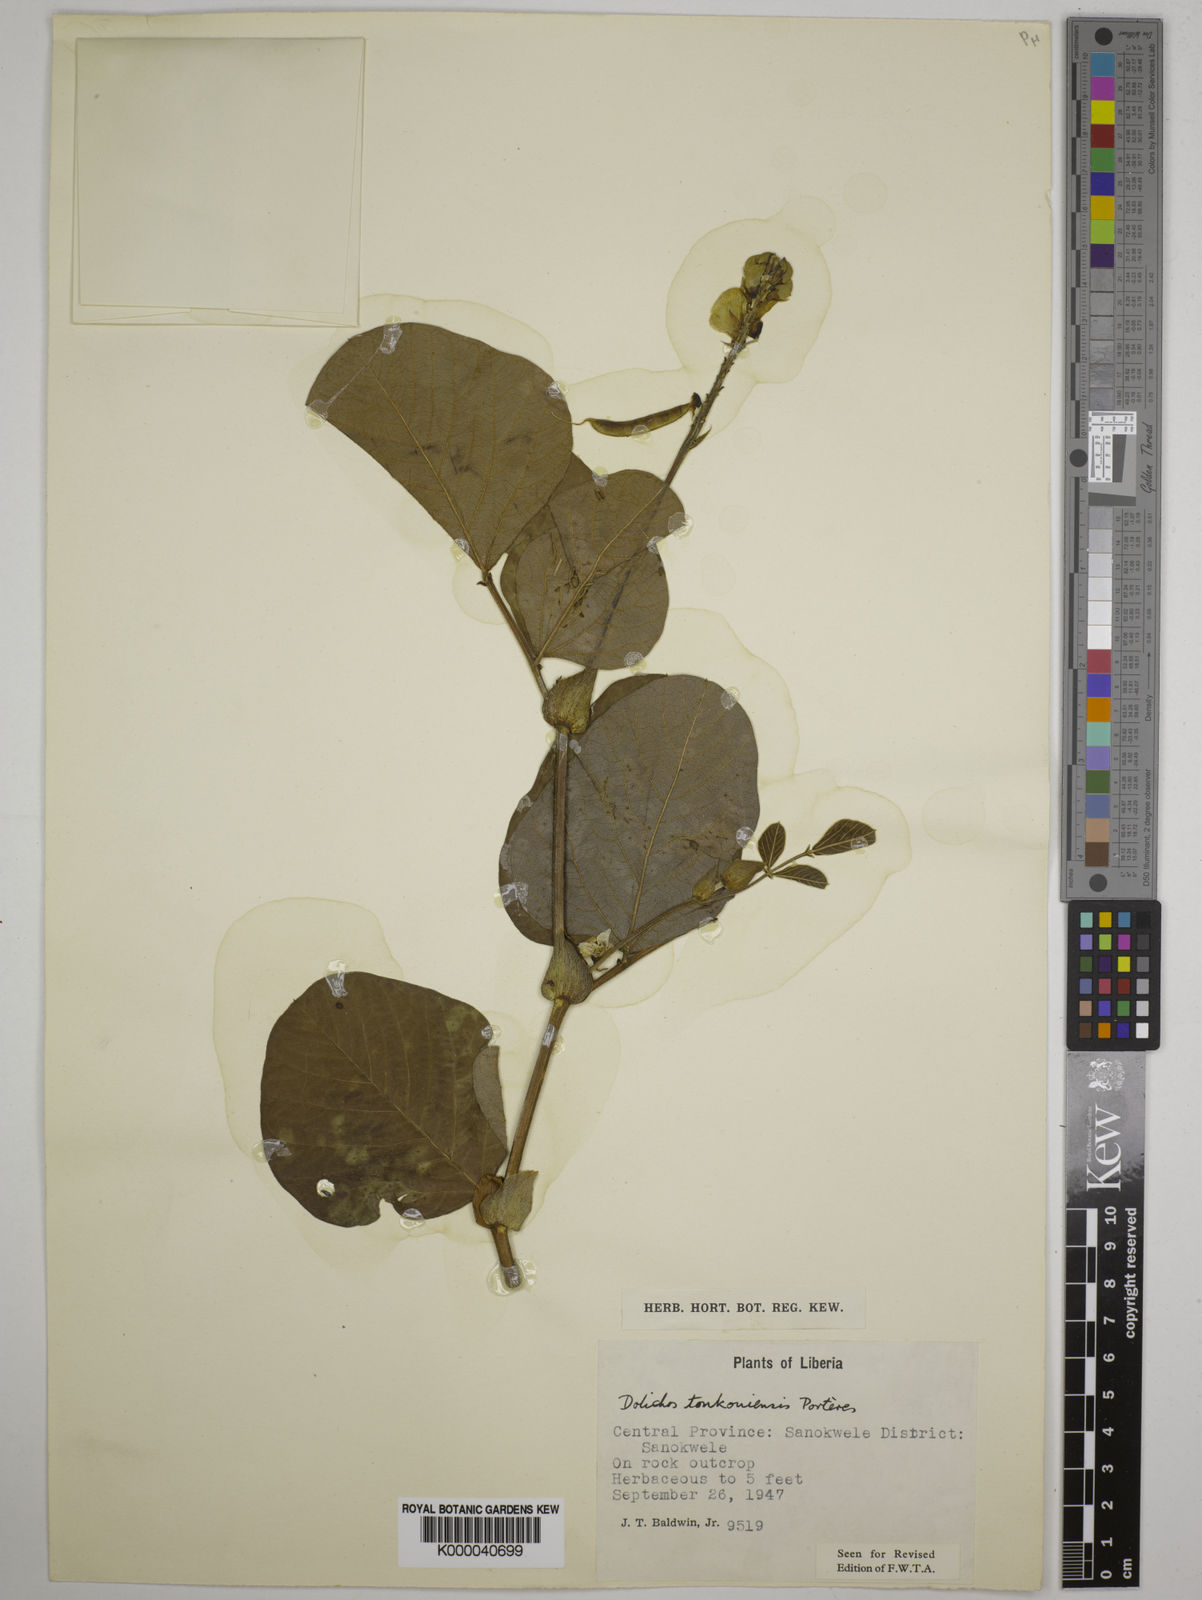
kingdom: Plantae
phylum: Tracheophyta
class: Magnoliopsida
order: Fabales
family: Fabaceae
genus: Dolichos
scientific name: Dolichos tonkouiensis
